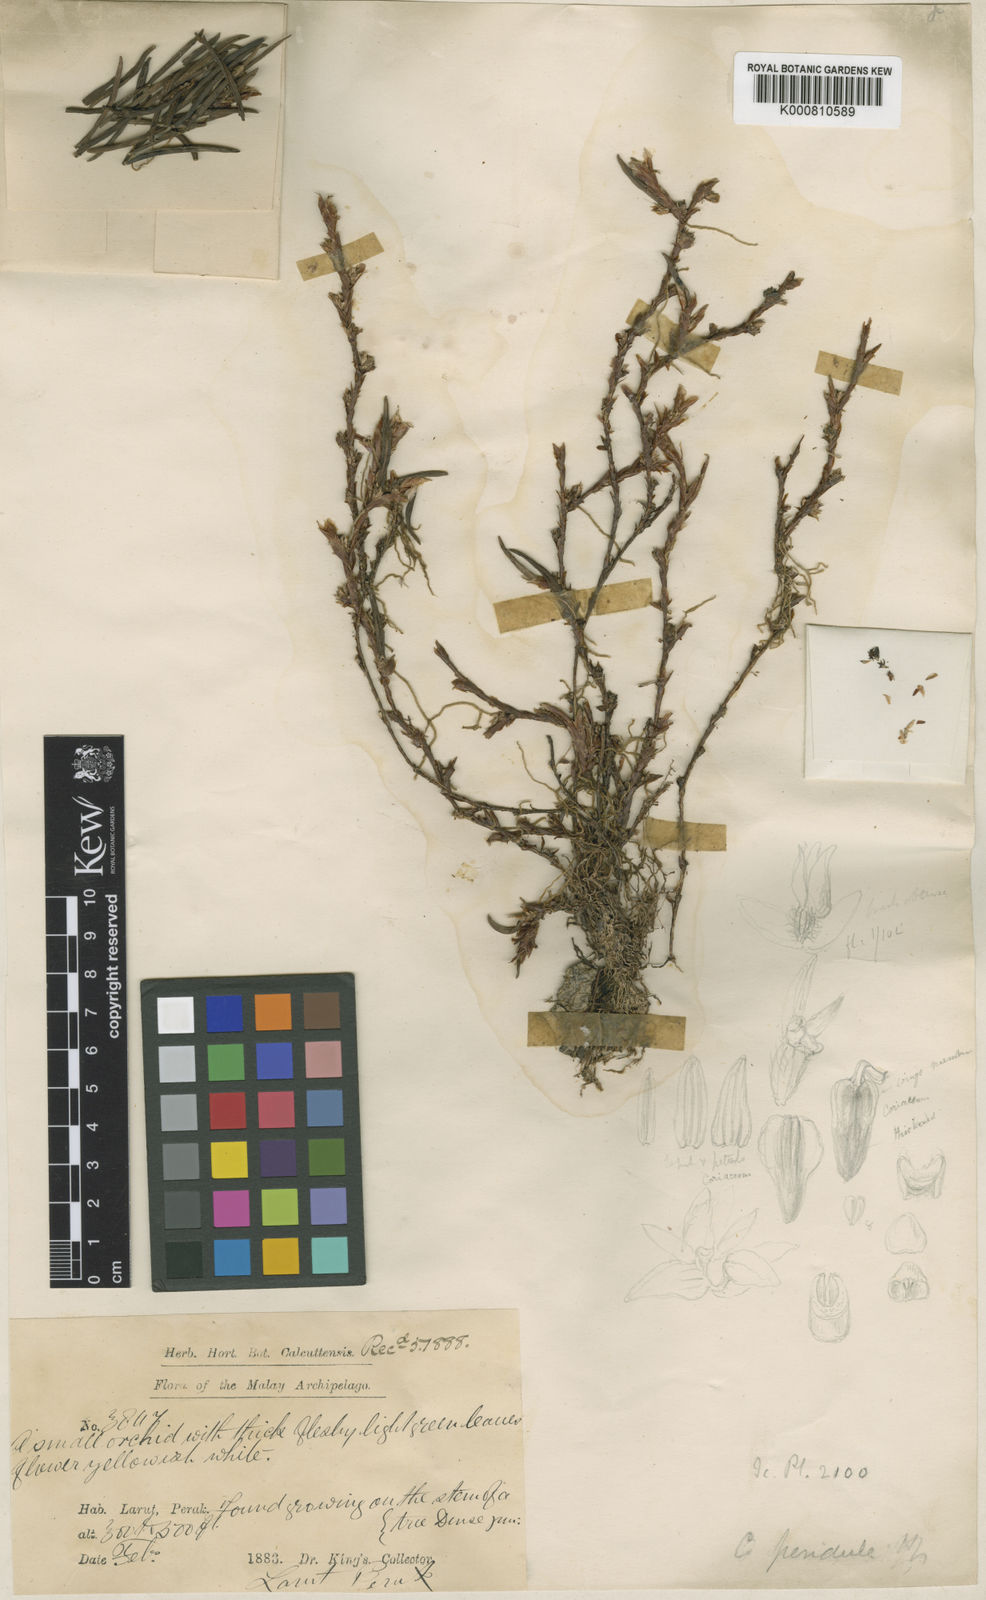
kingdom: Plantae
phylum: Tracheophyta
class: Liliopsida
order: Asparagales
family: Orchidaceae
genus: Ceratostylis
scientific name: Ceratostylis pendula
